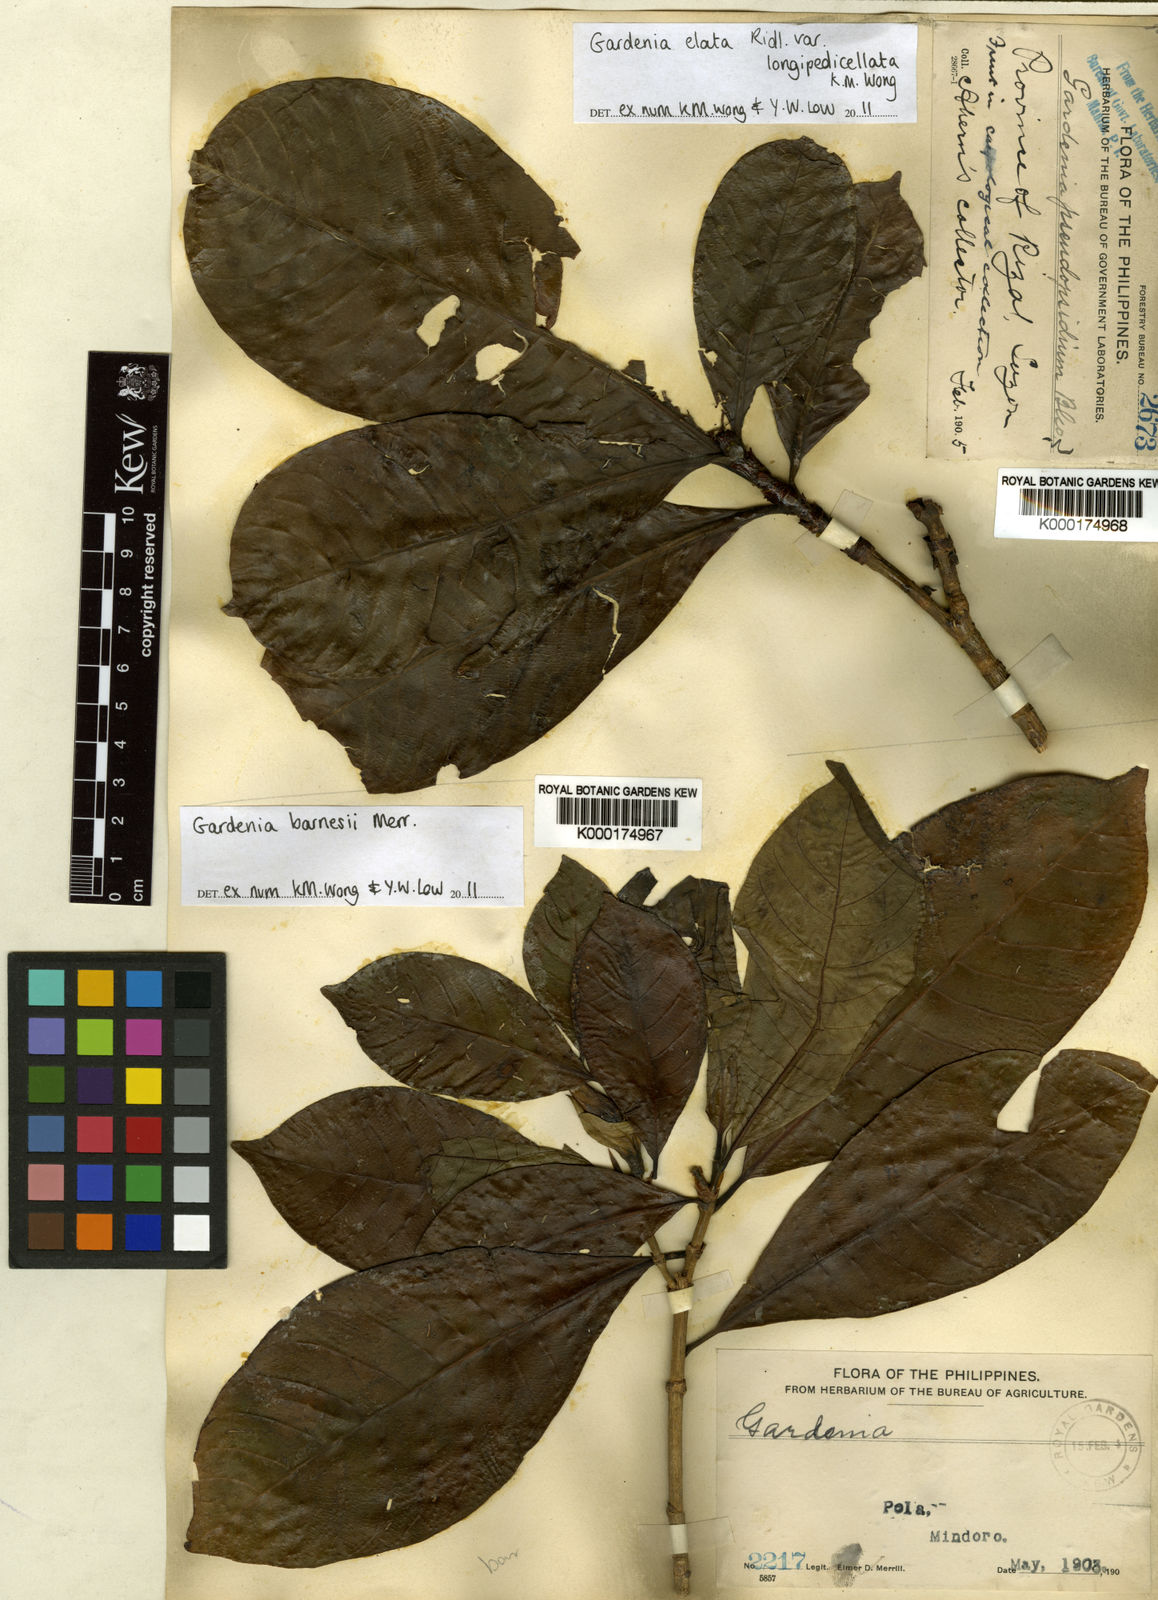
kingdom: Plantae
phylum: Tracheophyta
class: Magnoliopsida
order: Gentianales
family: Rubiaceae
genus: Gardenia
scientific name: Gardenia barnesii
